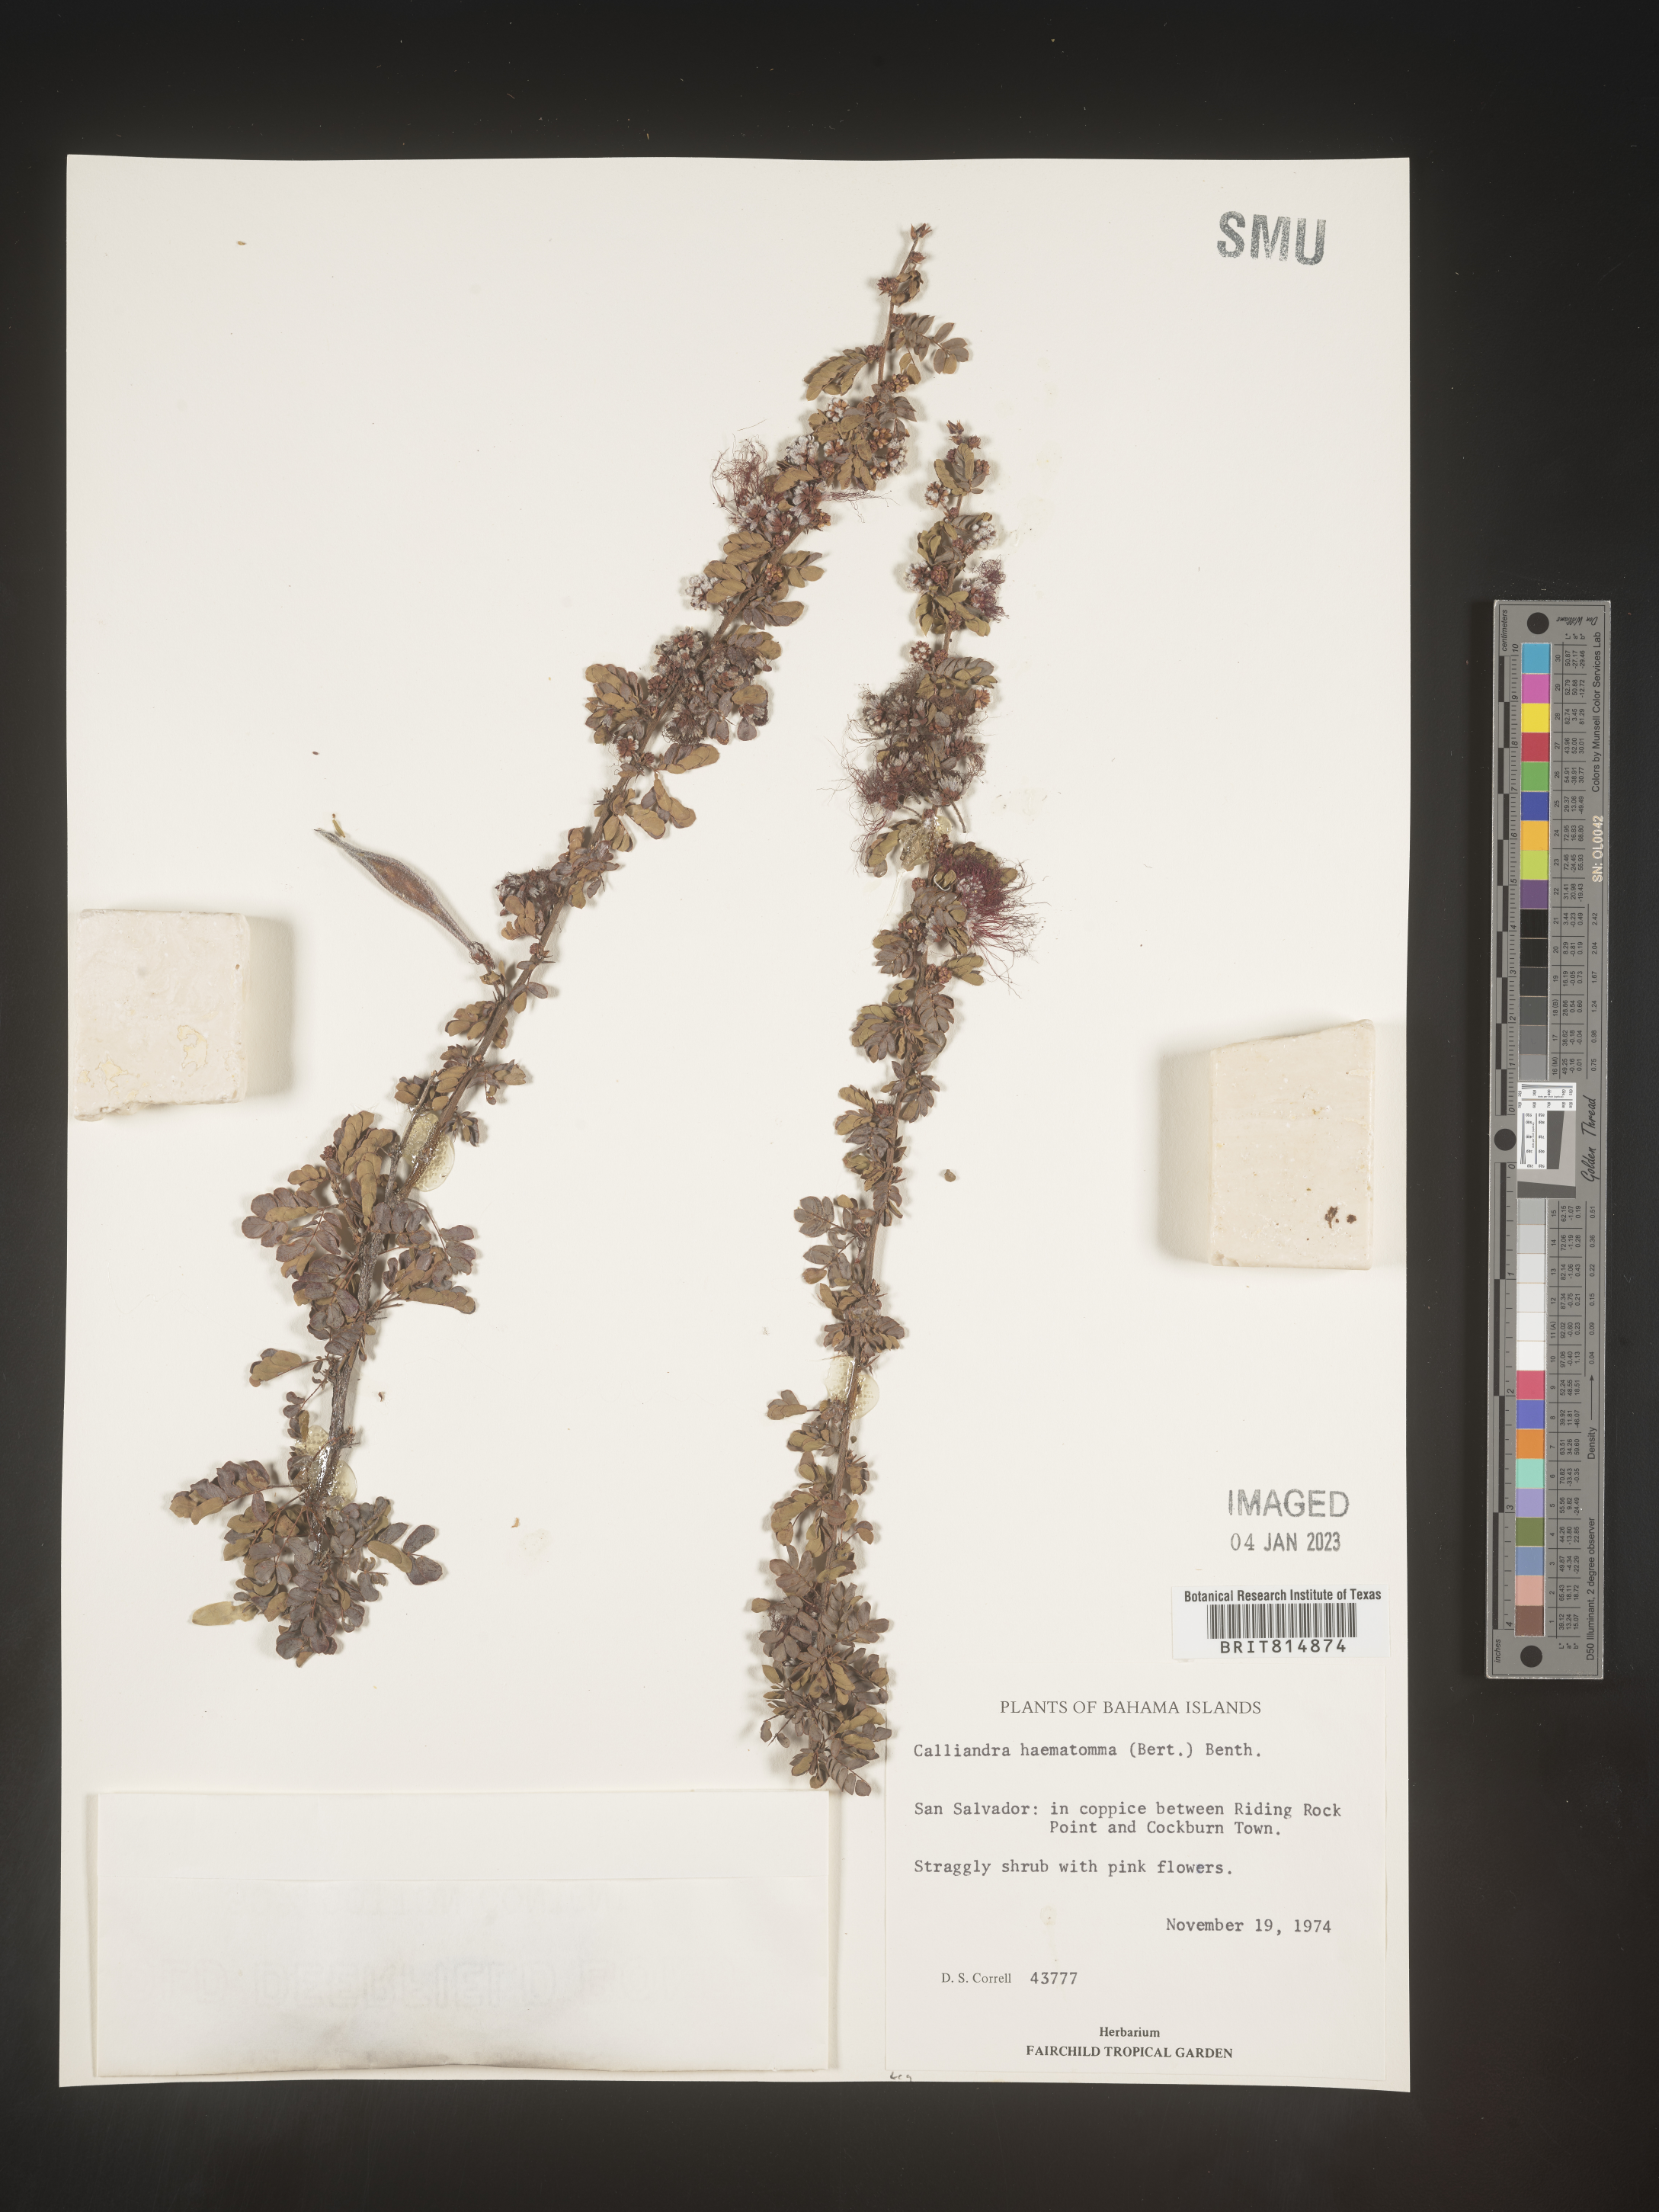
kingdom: Plantae
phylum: Tracheophyta
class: Magnoliopsida
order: Fabales
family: Fabaceae
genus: Calliandra
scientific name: Calliandra
